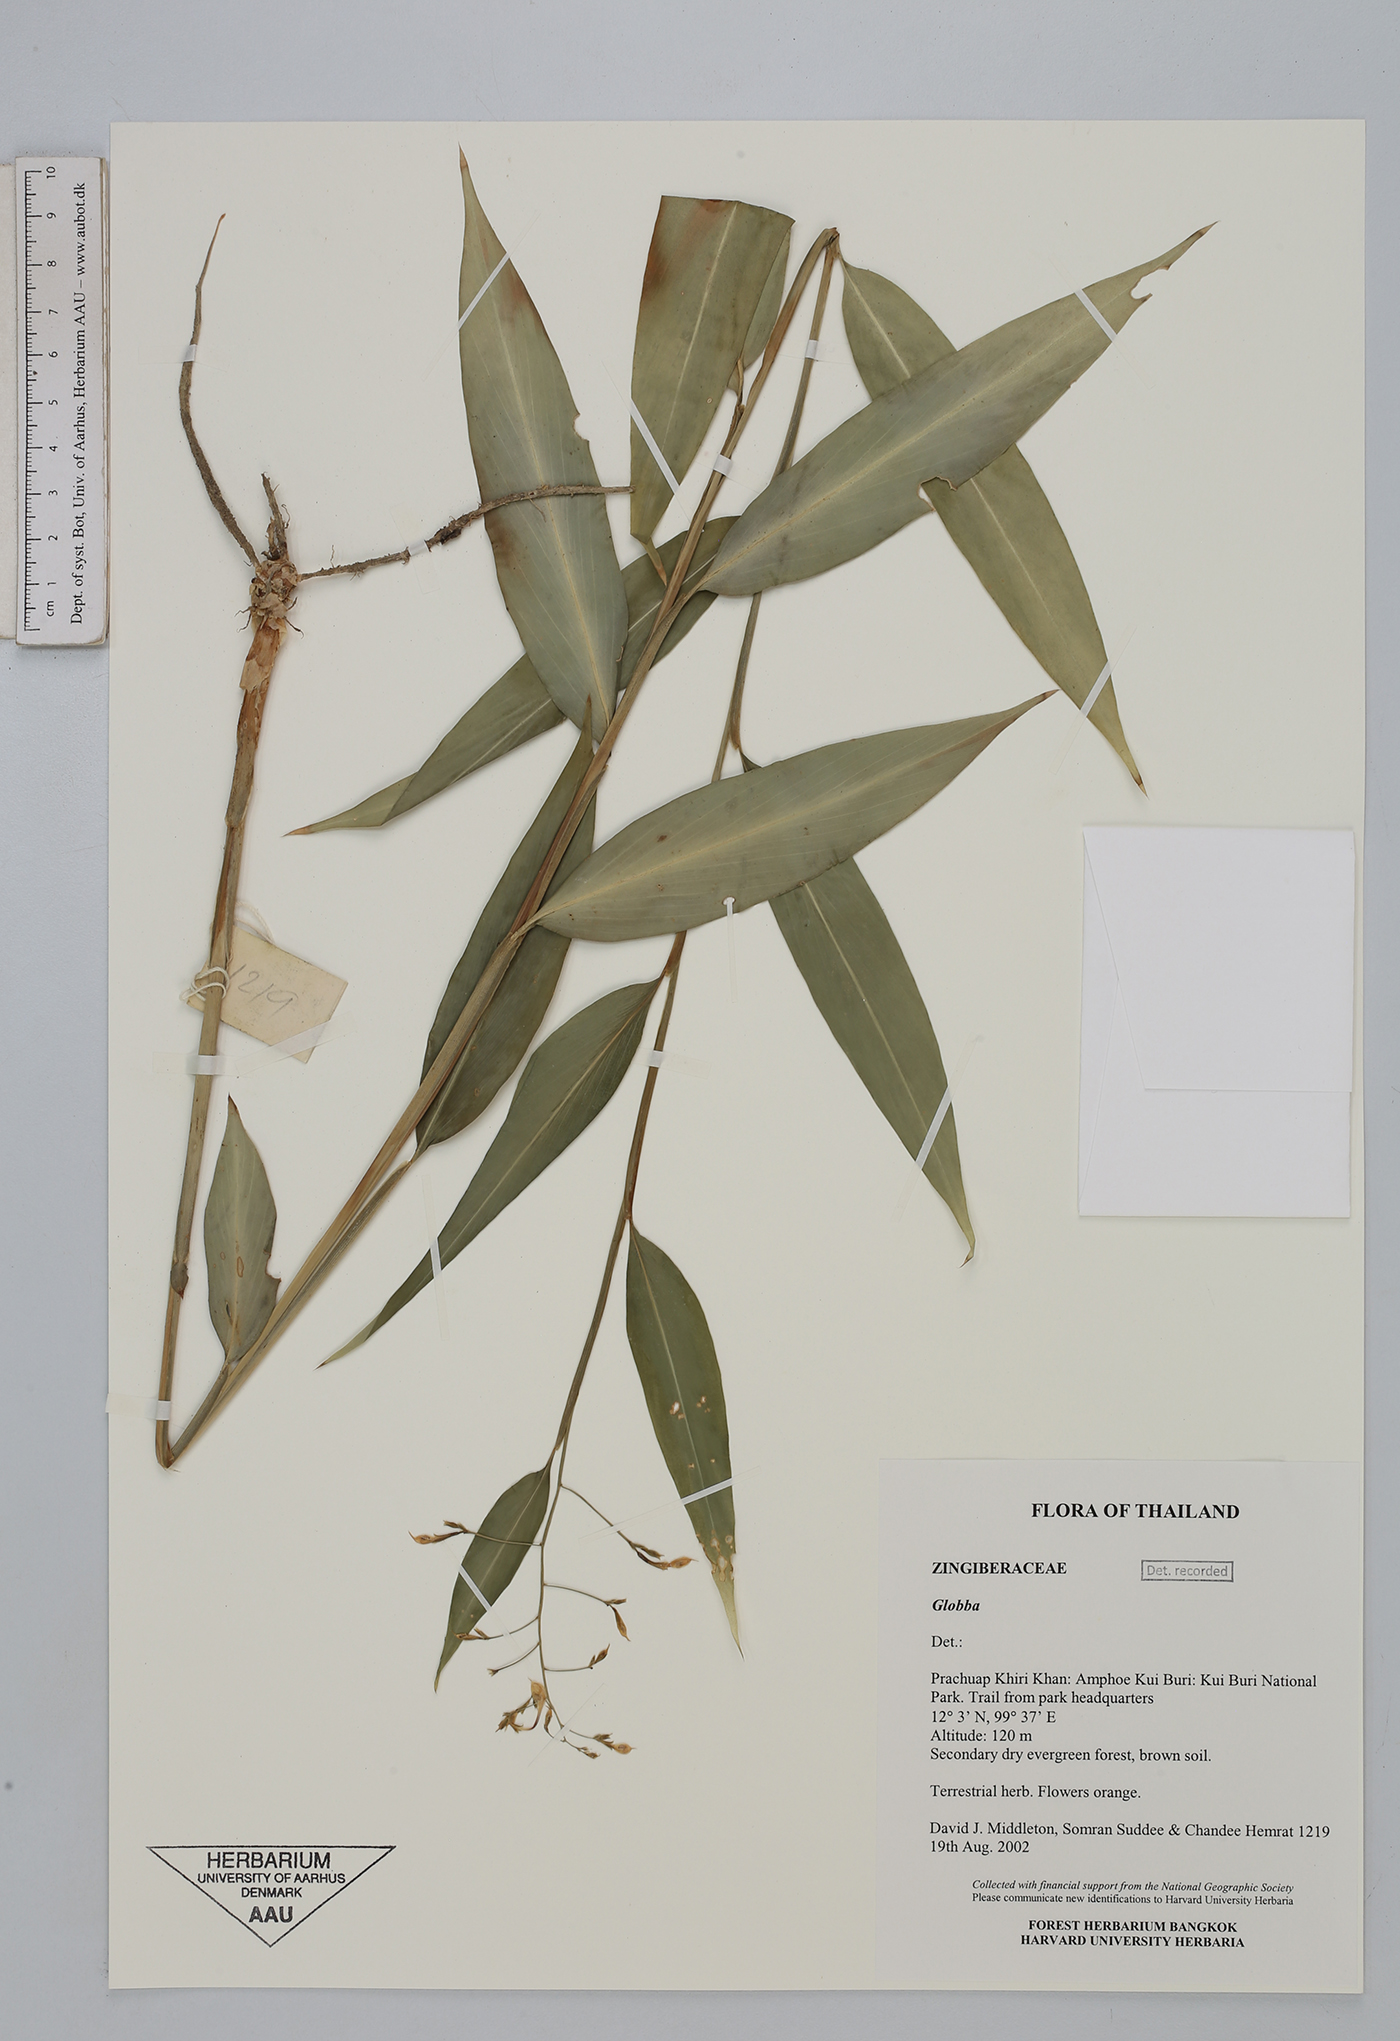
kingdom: Plantae
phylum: Tracheophyta
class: Liliopsida
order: Zingiberales
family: Zingiberaceae
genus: Globba
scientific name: Globba newmanii
